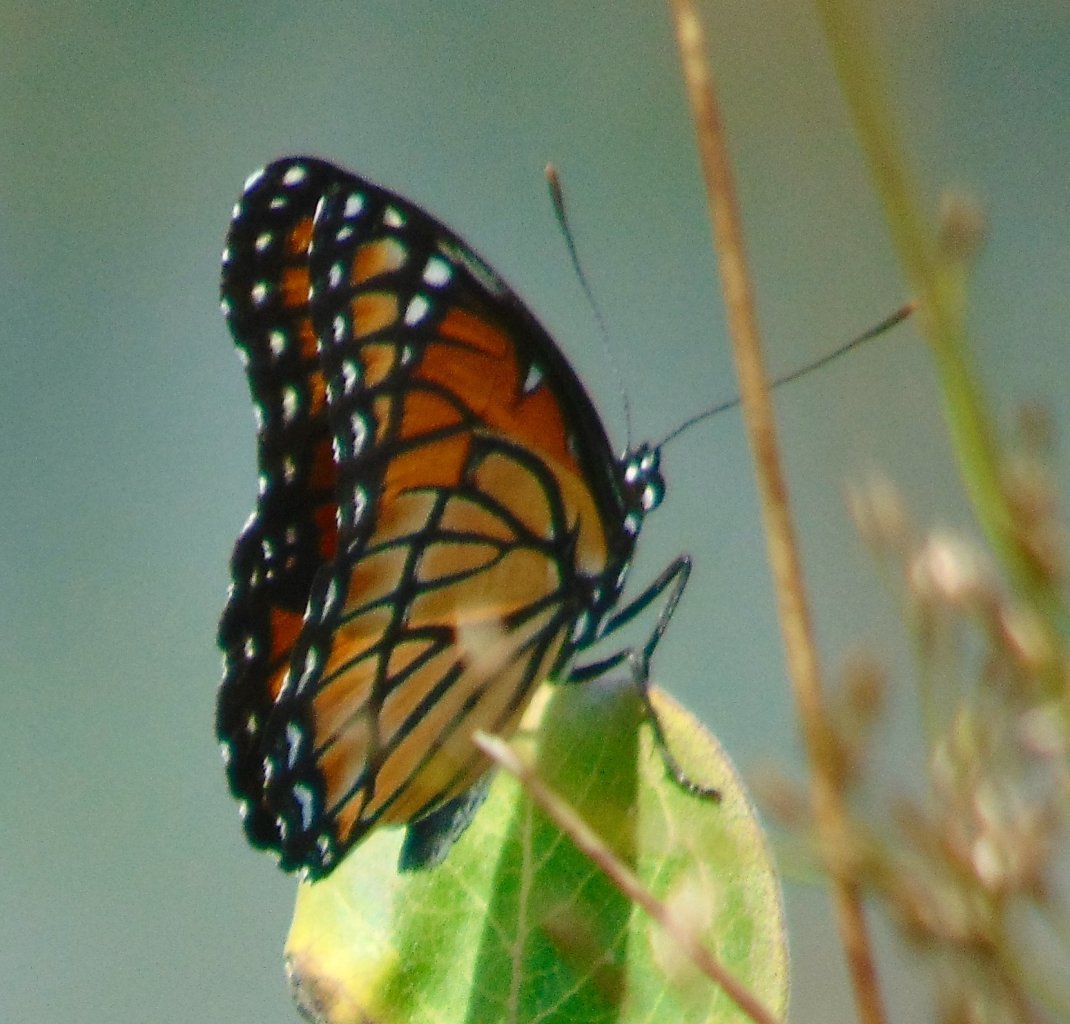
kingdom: Animalia
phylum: Arthropoda
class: Insecta
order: Lepidoptera
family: Nymphalidae
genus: Limenitis
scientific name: Limenitis archippus
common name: Viceroy
